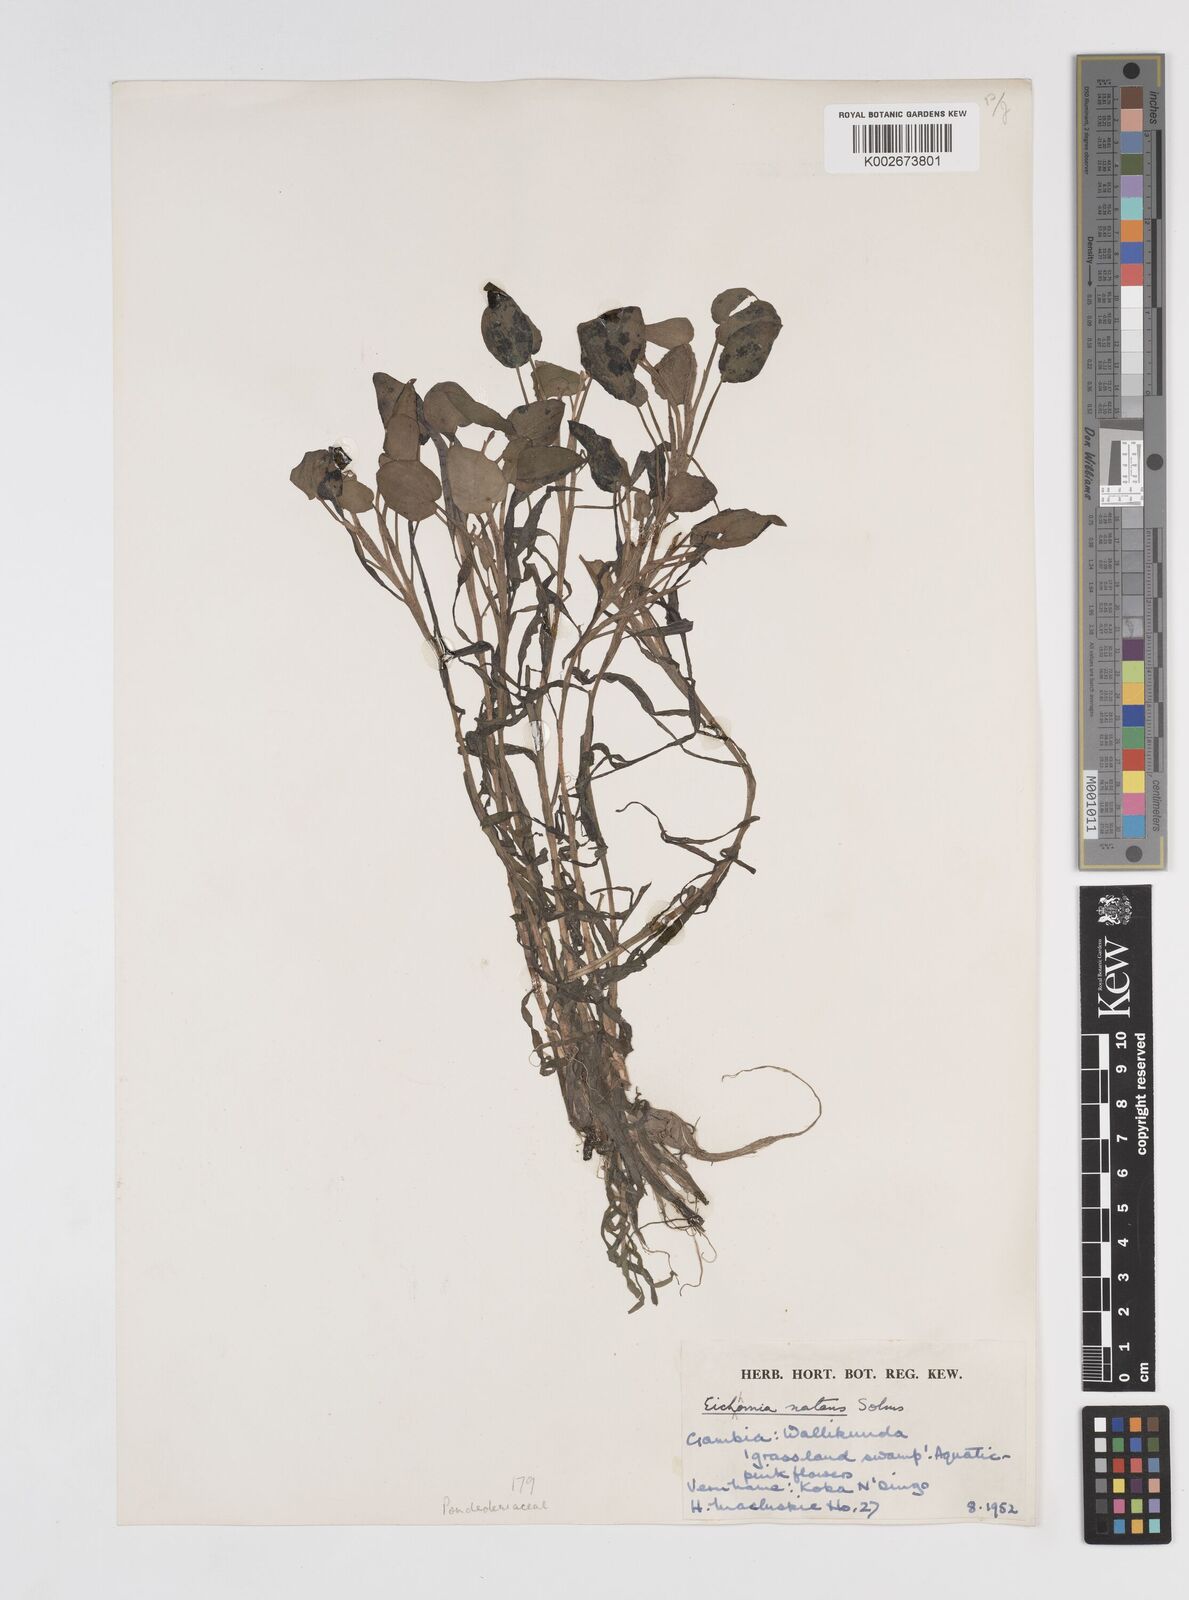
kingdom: Plantae
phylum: Tracheophyta
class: Liliopsida
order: Commelinales
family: Pontederiaceae
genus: Pontederia
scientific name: Pontederia diversifolia
